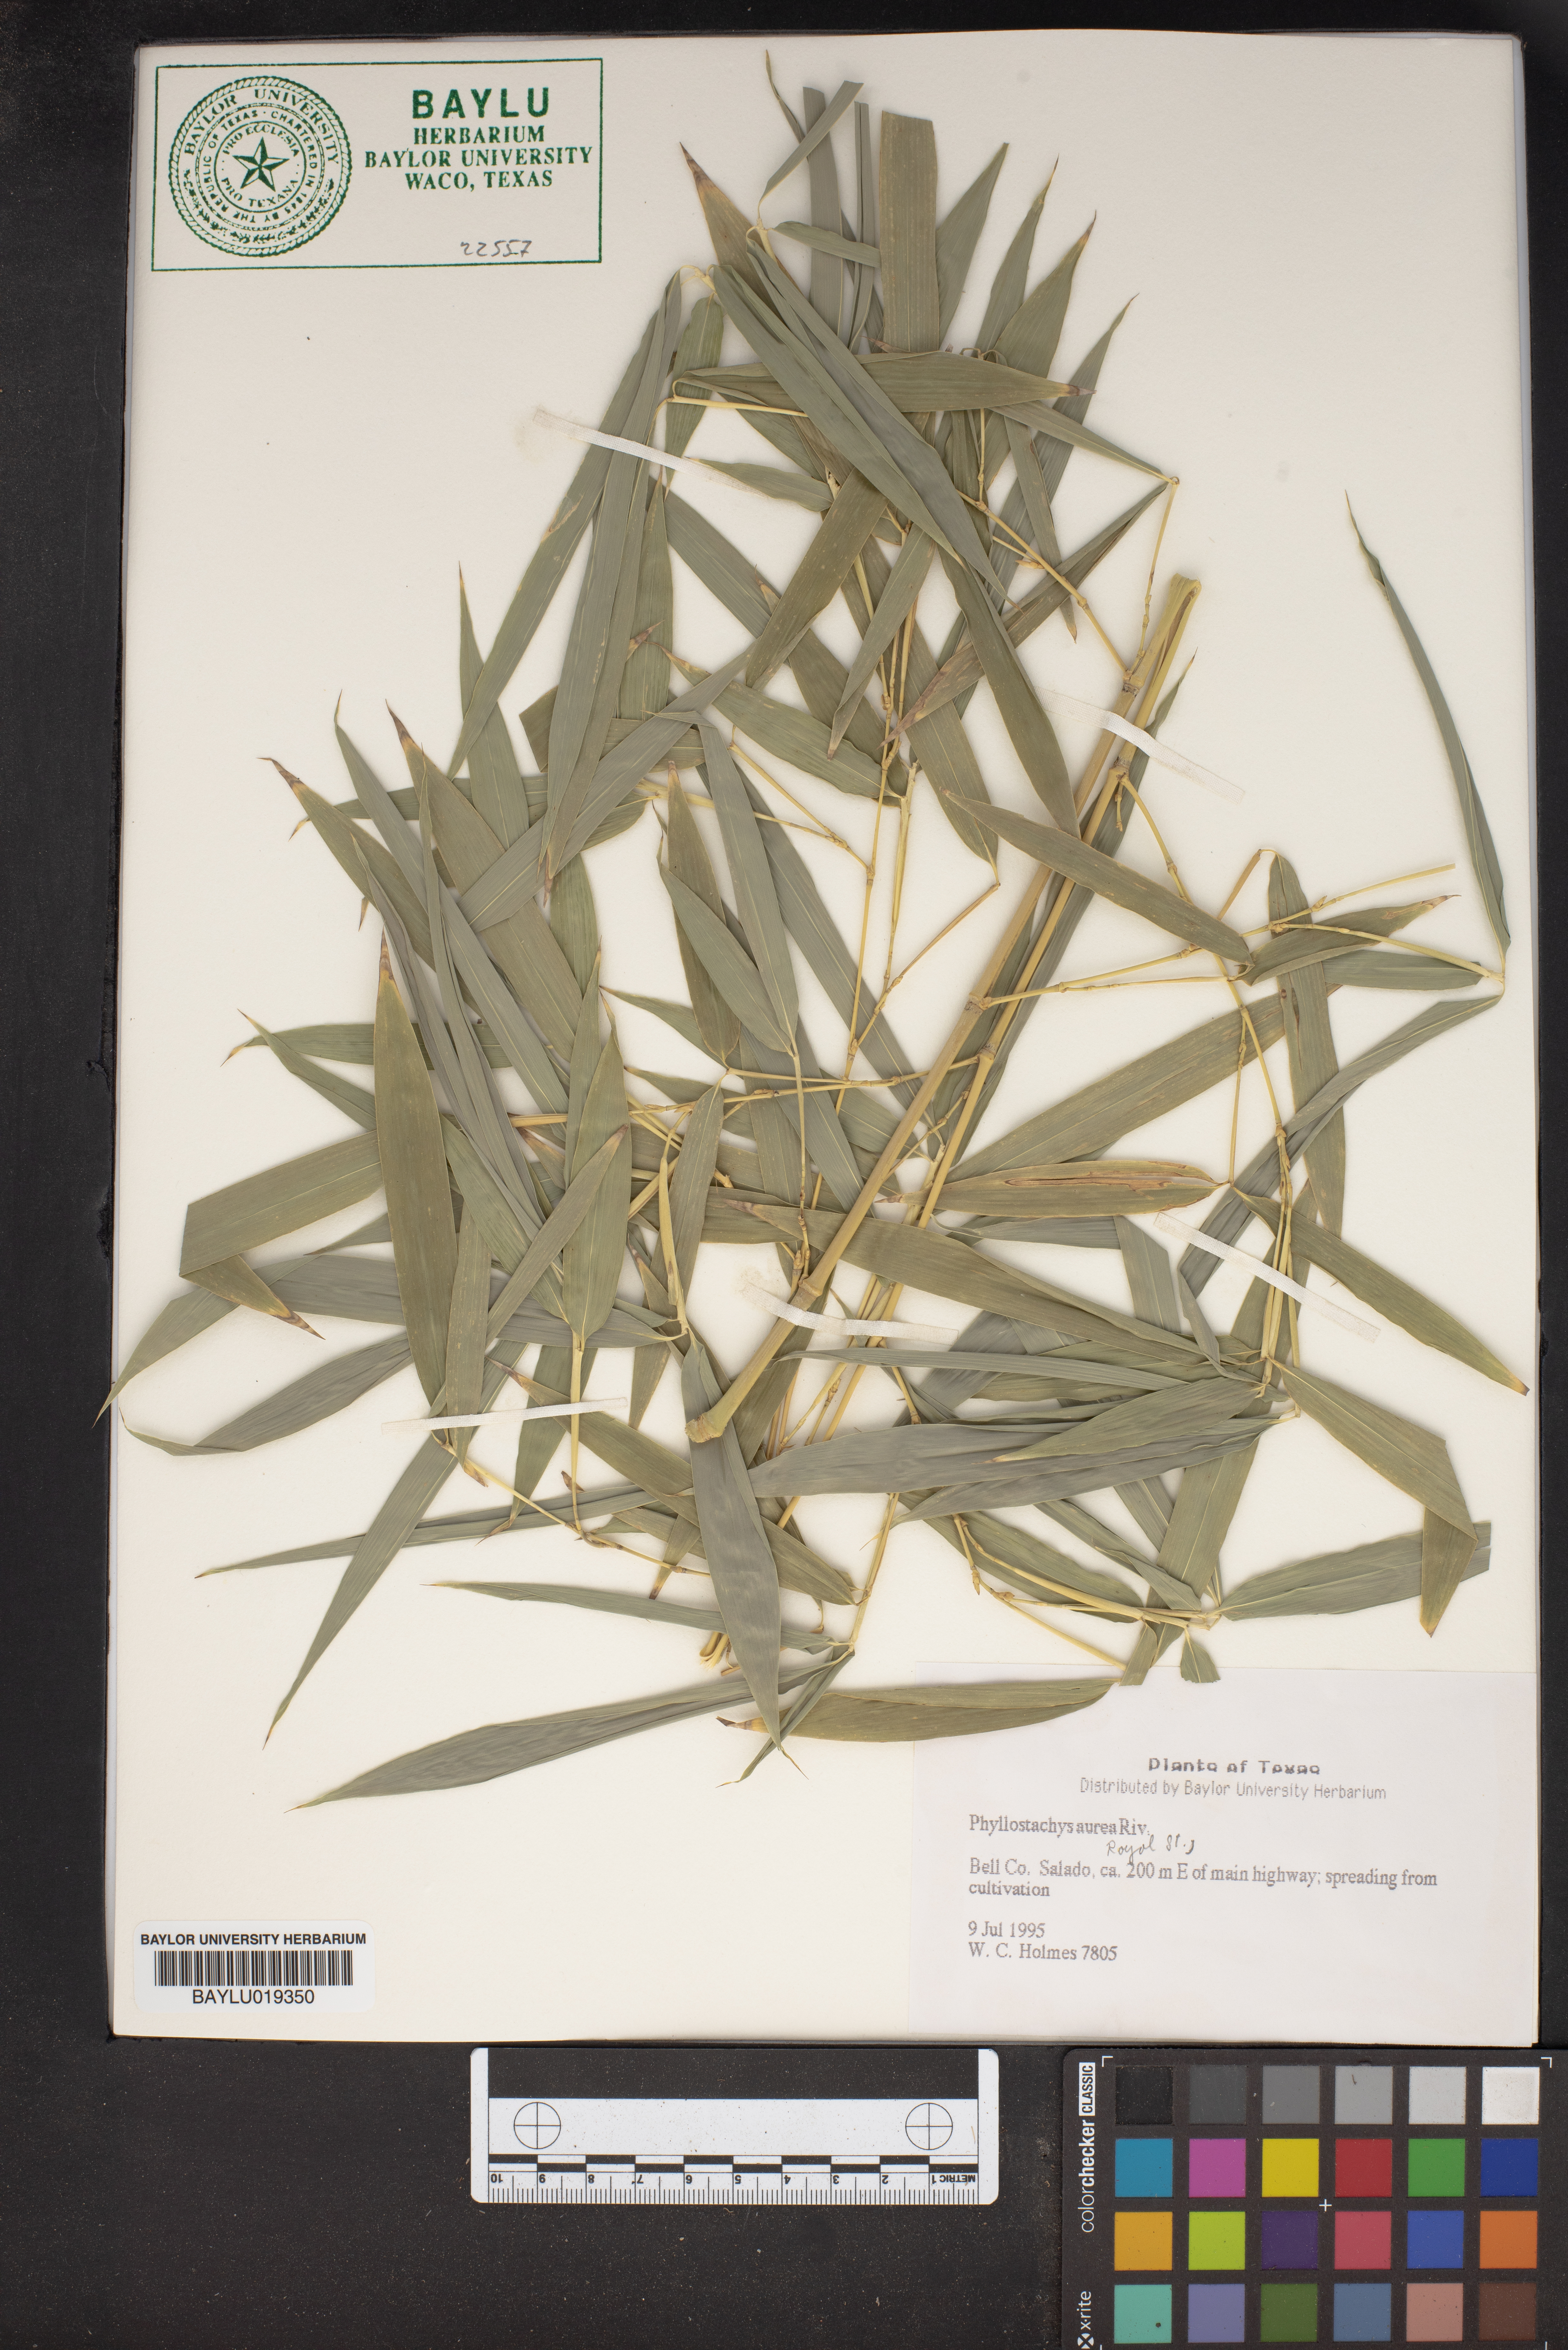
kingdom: Plantae
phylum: Tracheophyta
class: Liliopsida
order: Poales
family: Poaceae
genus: Phyllostachys
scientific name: Phyllostachys aurea
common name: Golden bamboo
